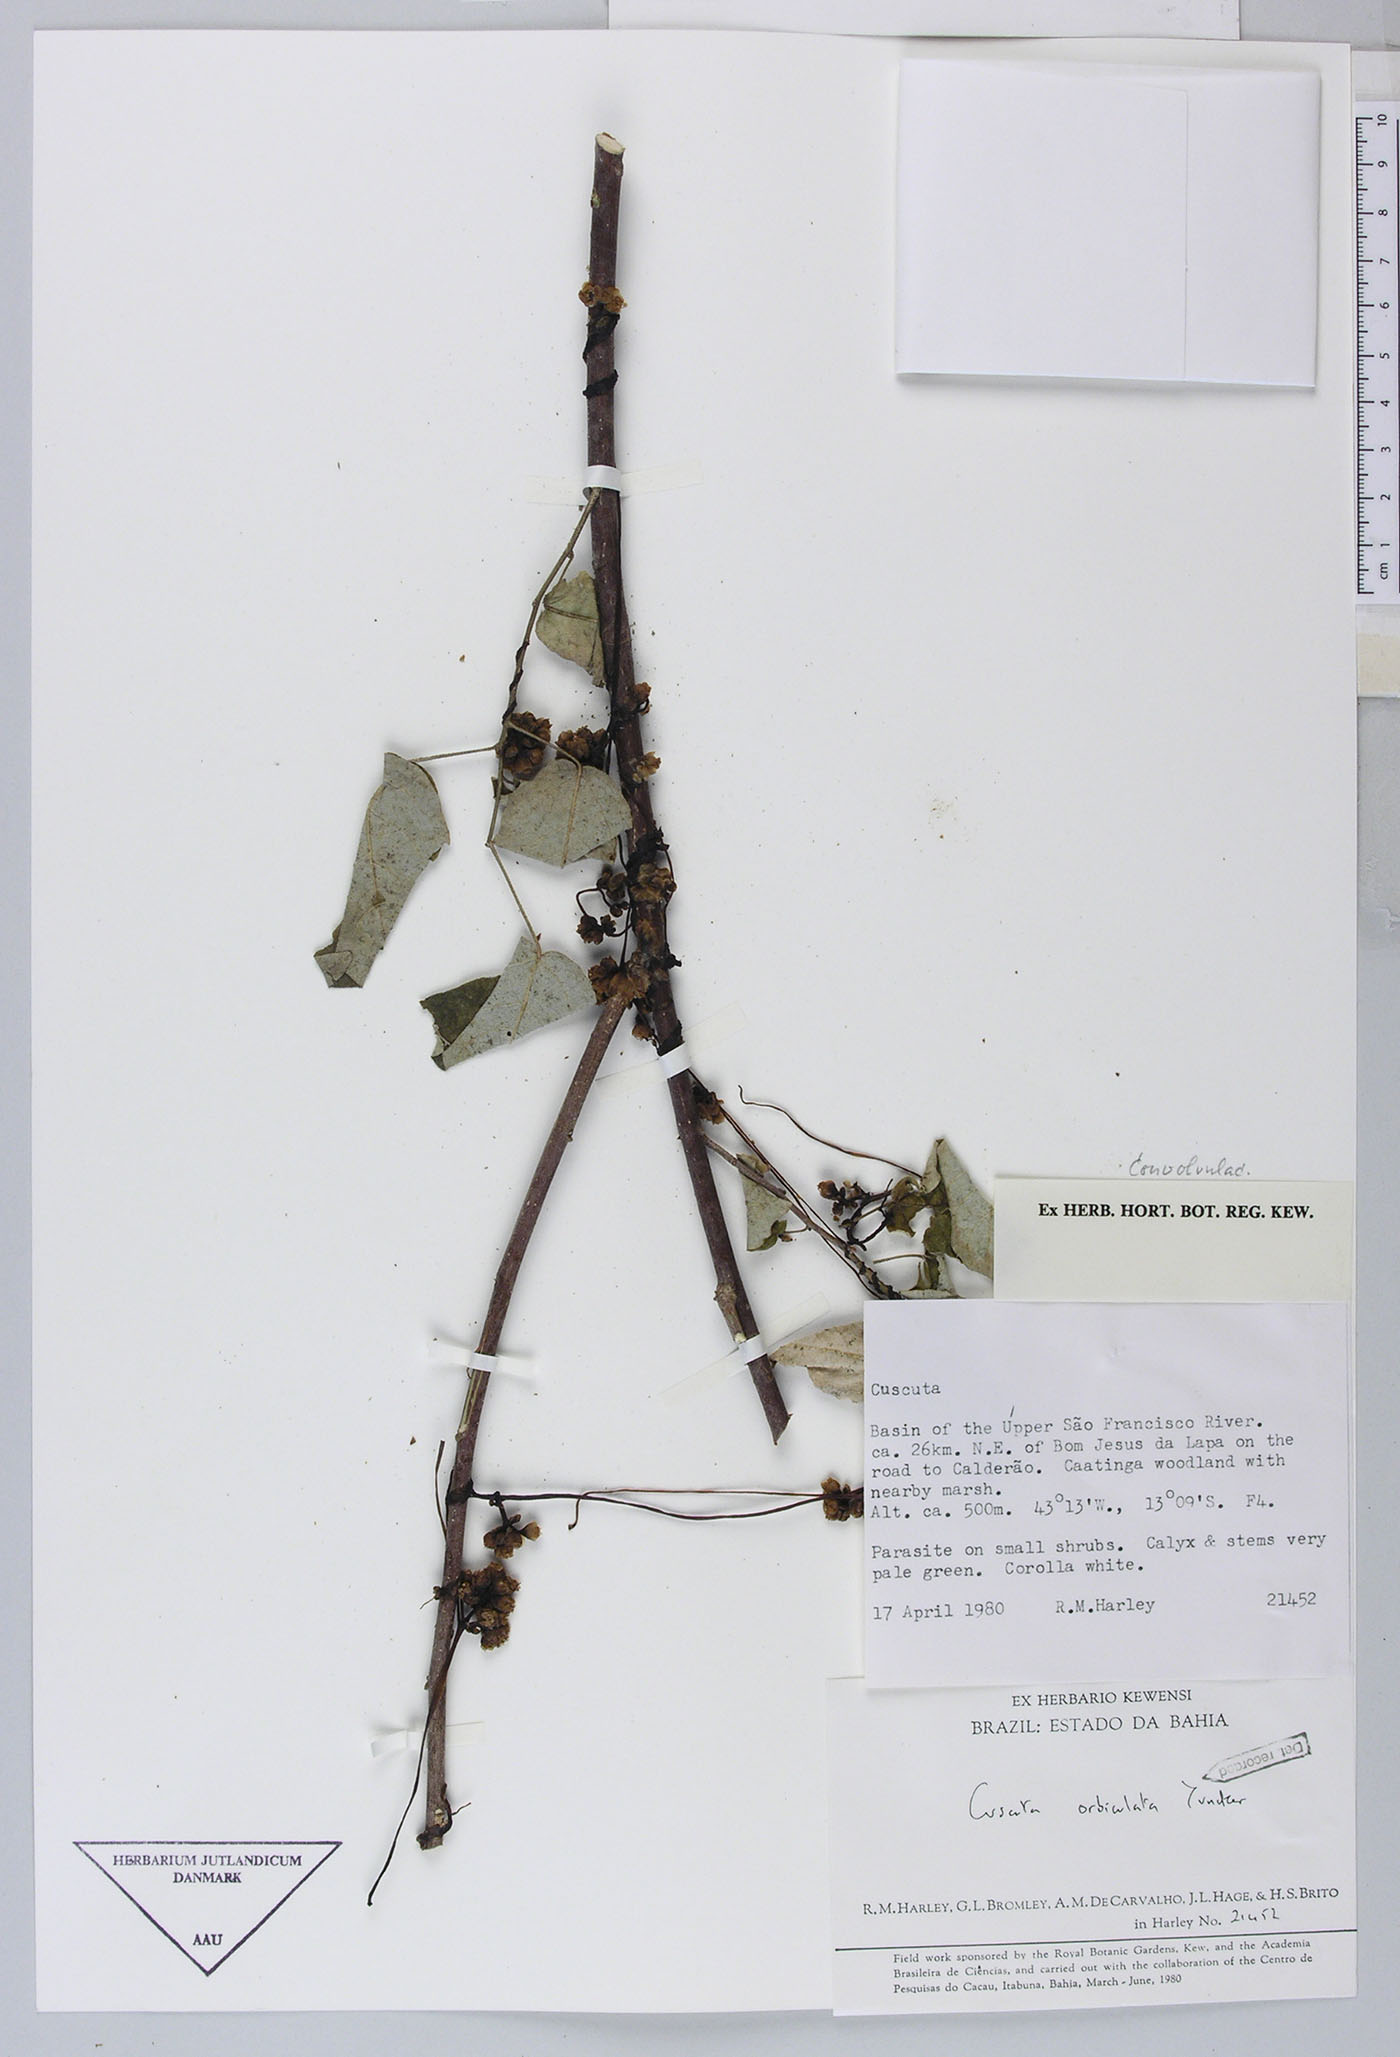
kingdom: Plantae
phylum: Tracheophyta
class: Magnoliopsida
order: Solanales
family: Convolvulaceae
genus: Cuscuta
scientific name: Cuscuta orbiculata
